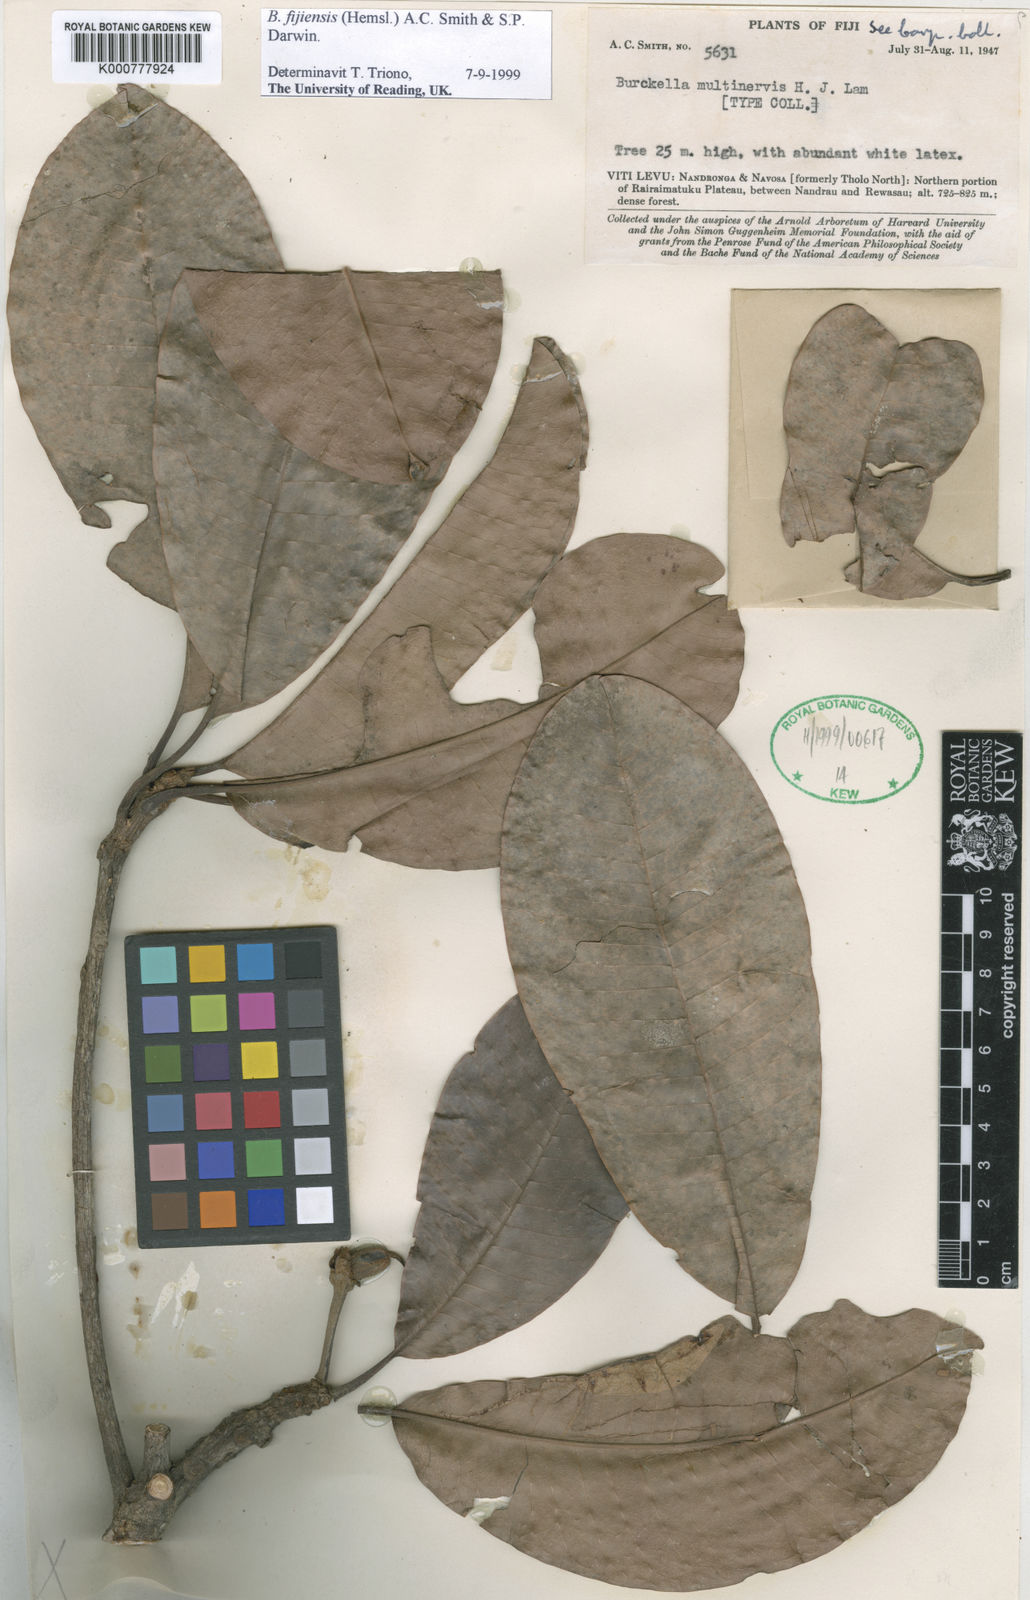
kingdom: Plantae
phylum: Tracheophyta
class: Magnoliopsida
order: Ericales
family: Sapotaceae
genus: Burckella
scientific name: Burckella fijiensis
